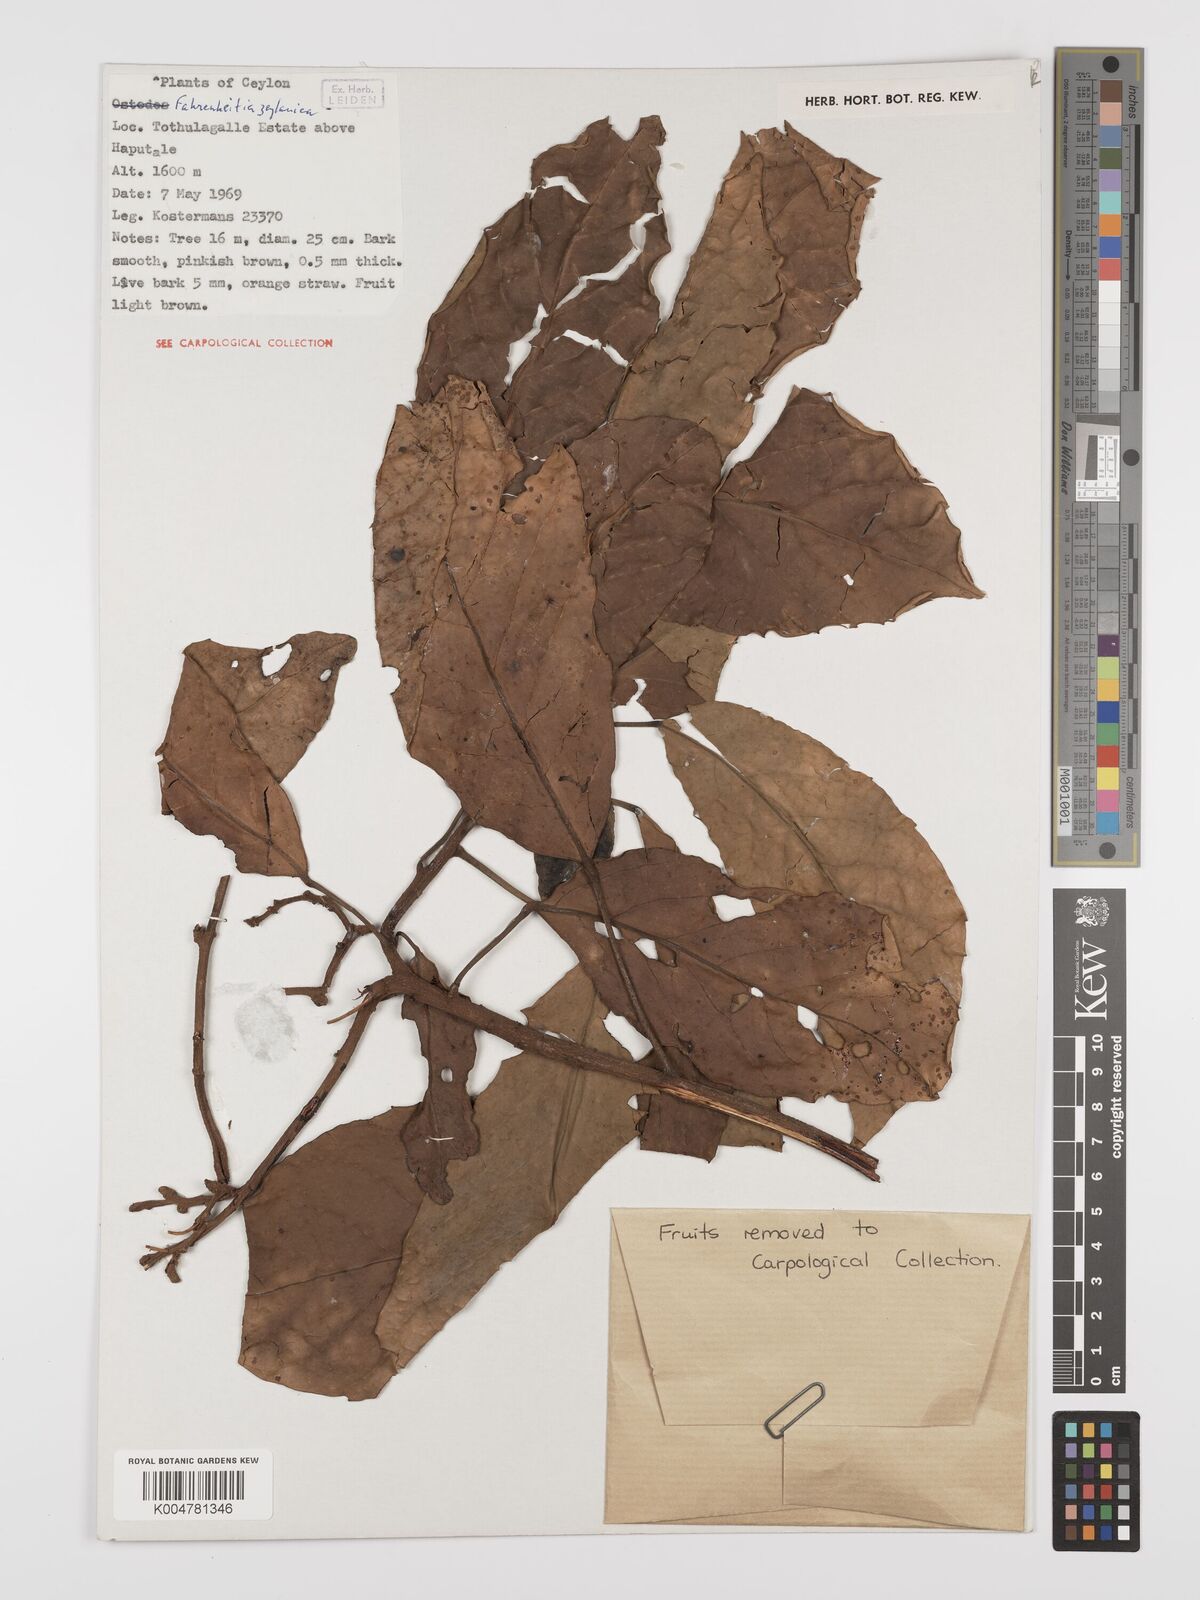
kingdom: Plantae
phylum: Tracheophyta
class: Magnoliopsida
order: Malpighiales
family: Euphorbiaceae
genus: Paracroton
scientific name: Paracroton zeylanicus
